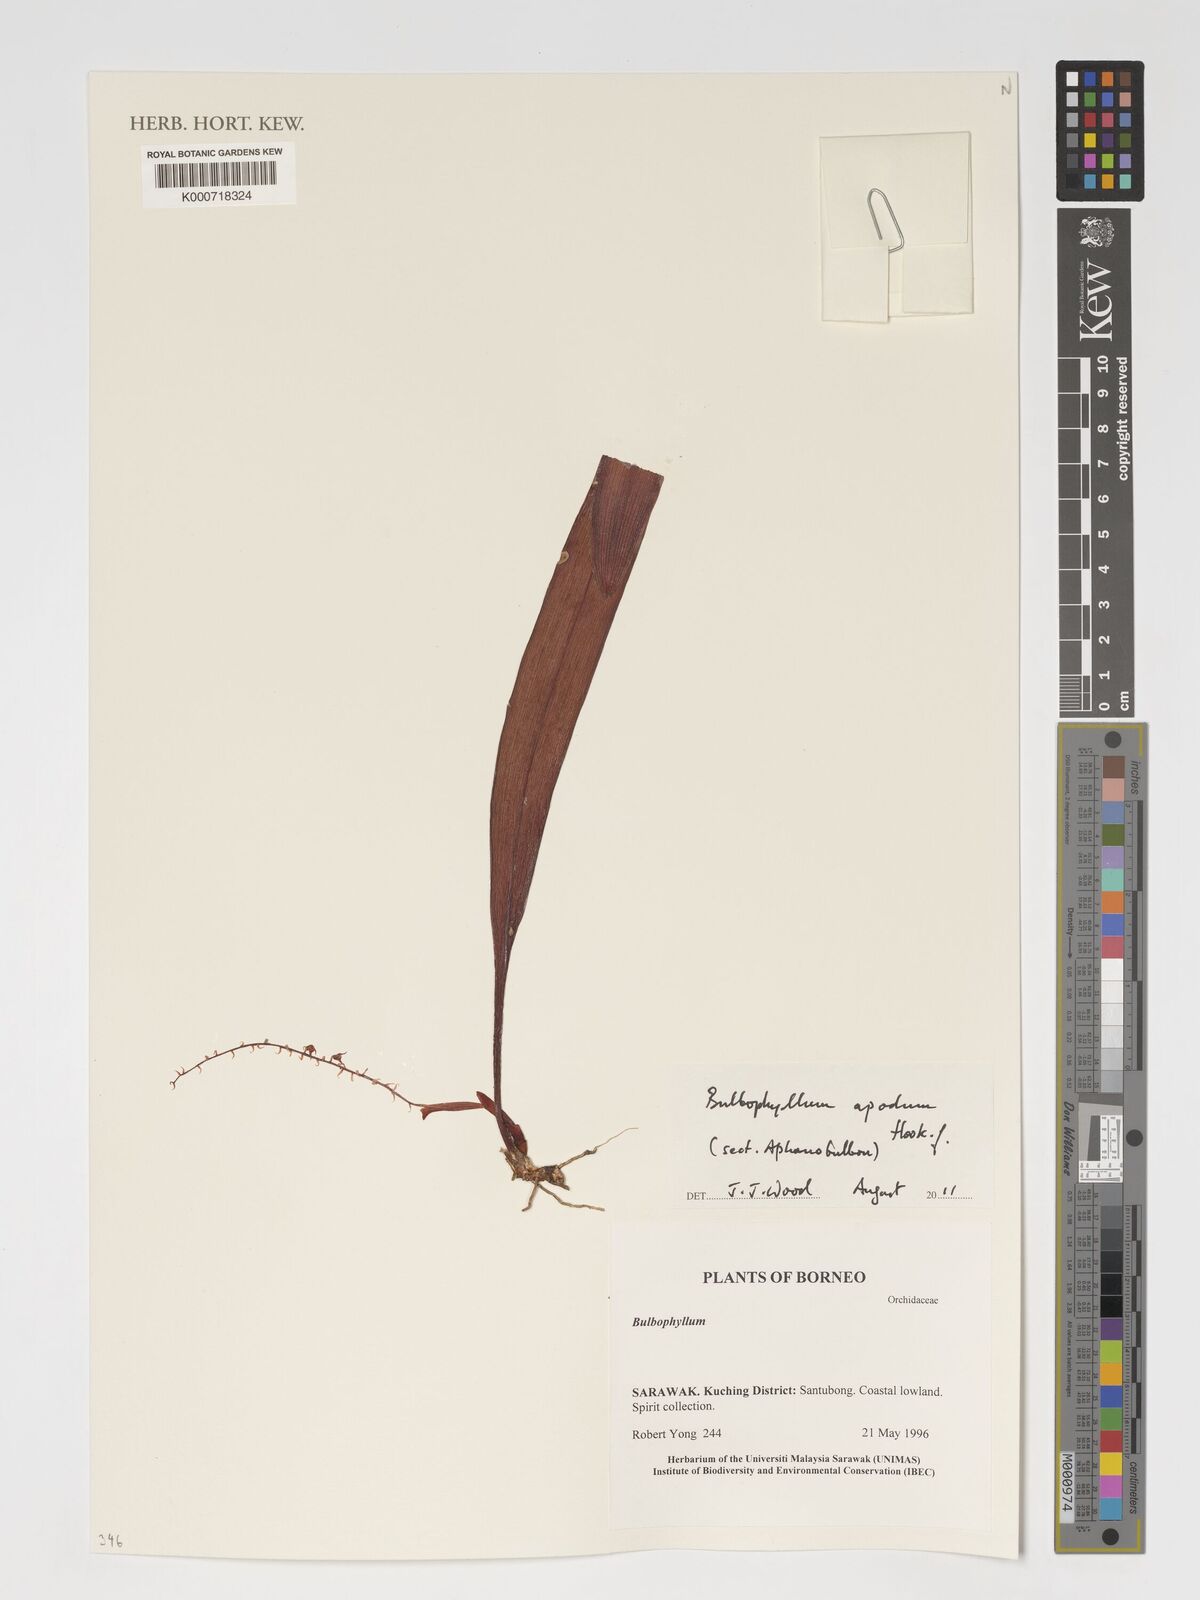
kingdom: Plantae
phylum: Tracheophyta
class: Liliopsida
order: Asparagales
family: Orchidaceae
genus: Bulbophyllum
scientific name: Bulbophyllum apodum
